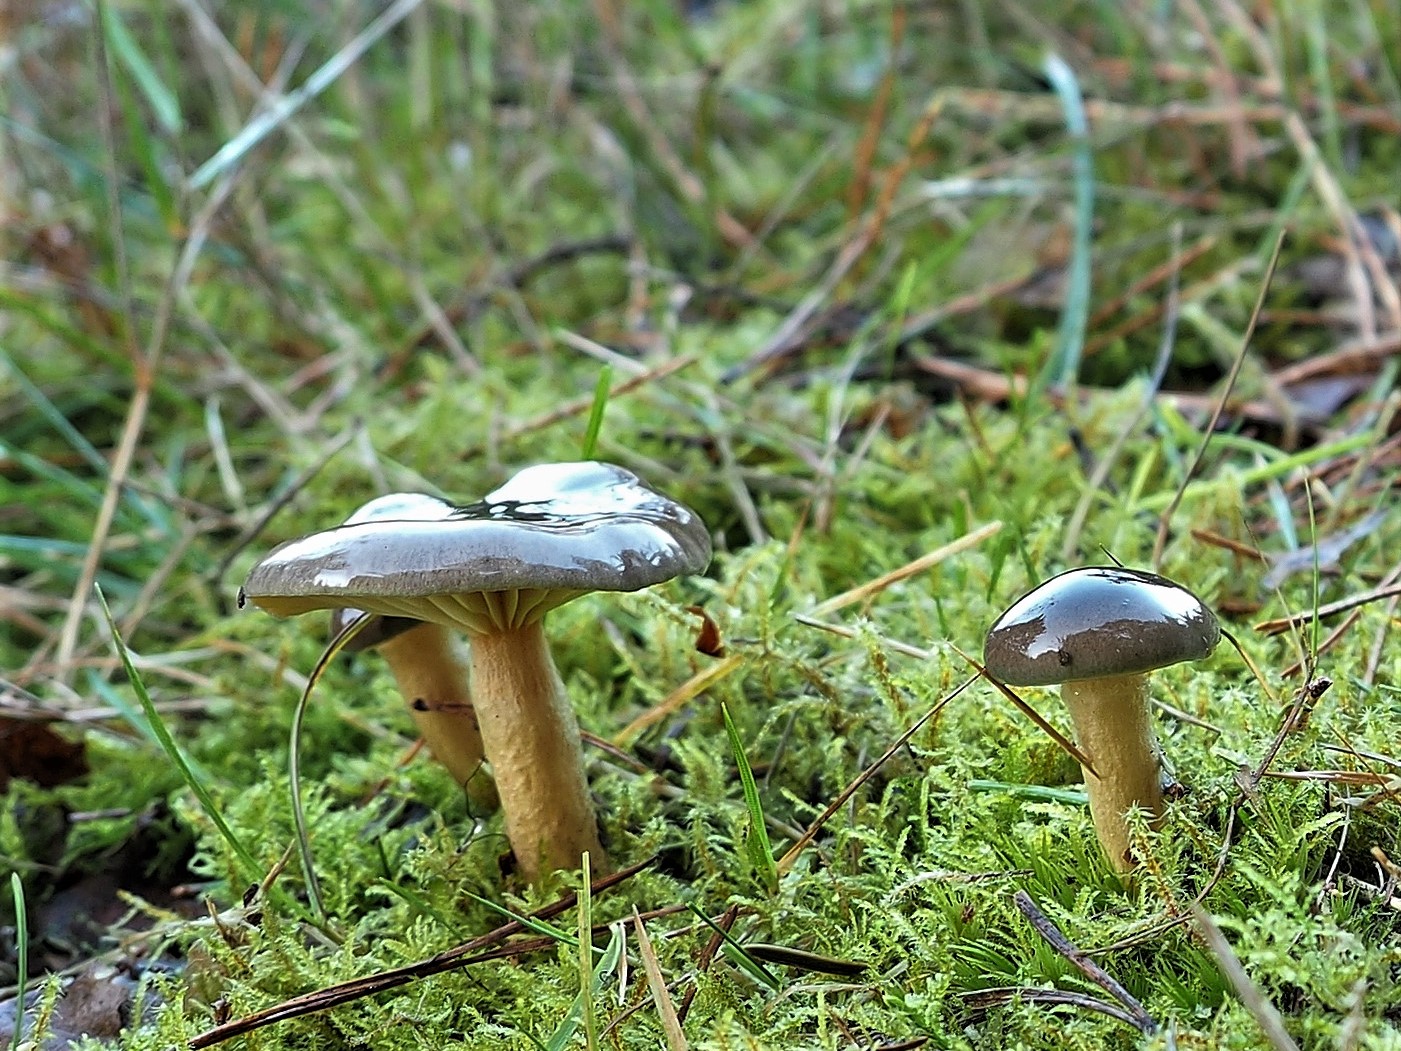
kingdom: Fungi
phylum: Basidiomycota
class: Agaricomycetes
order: Agaricales
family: Hygrophoraceae
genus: Hygrophorus
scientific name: Hygrophorus hypothejus
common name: frost-sneglehat
